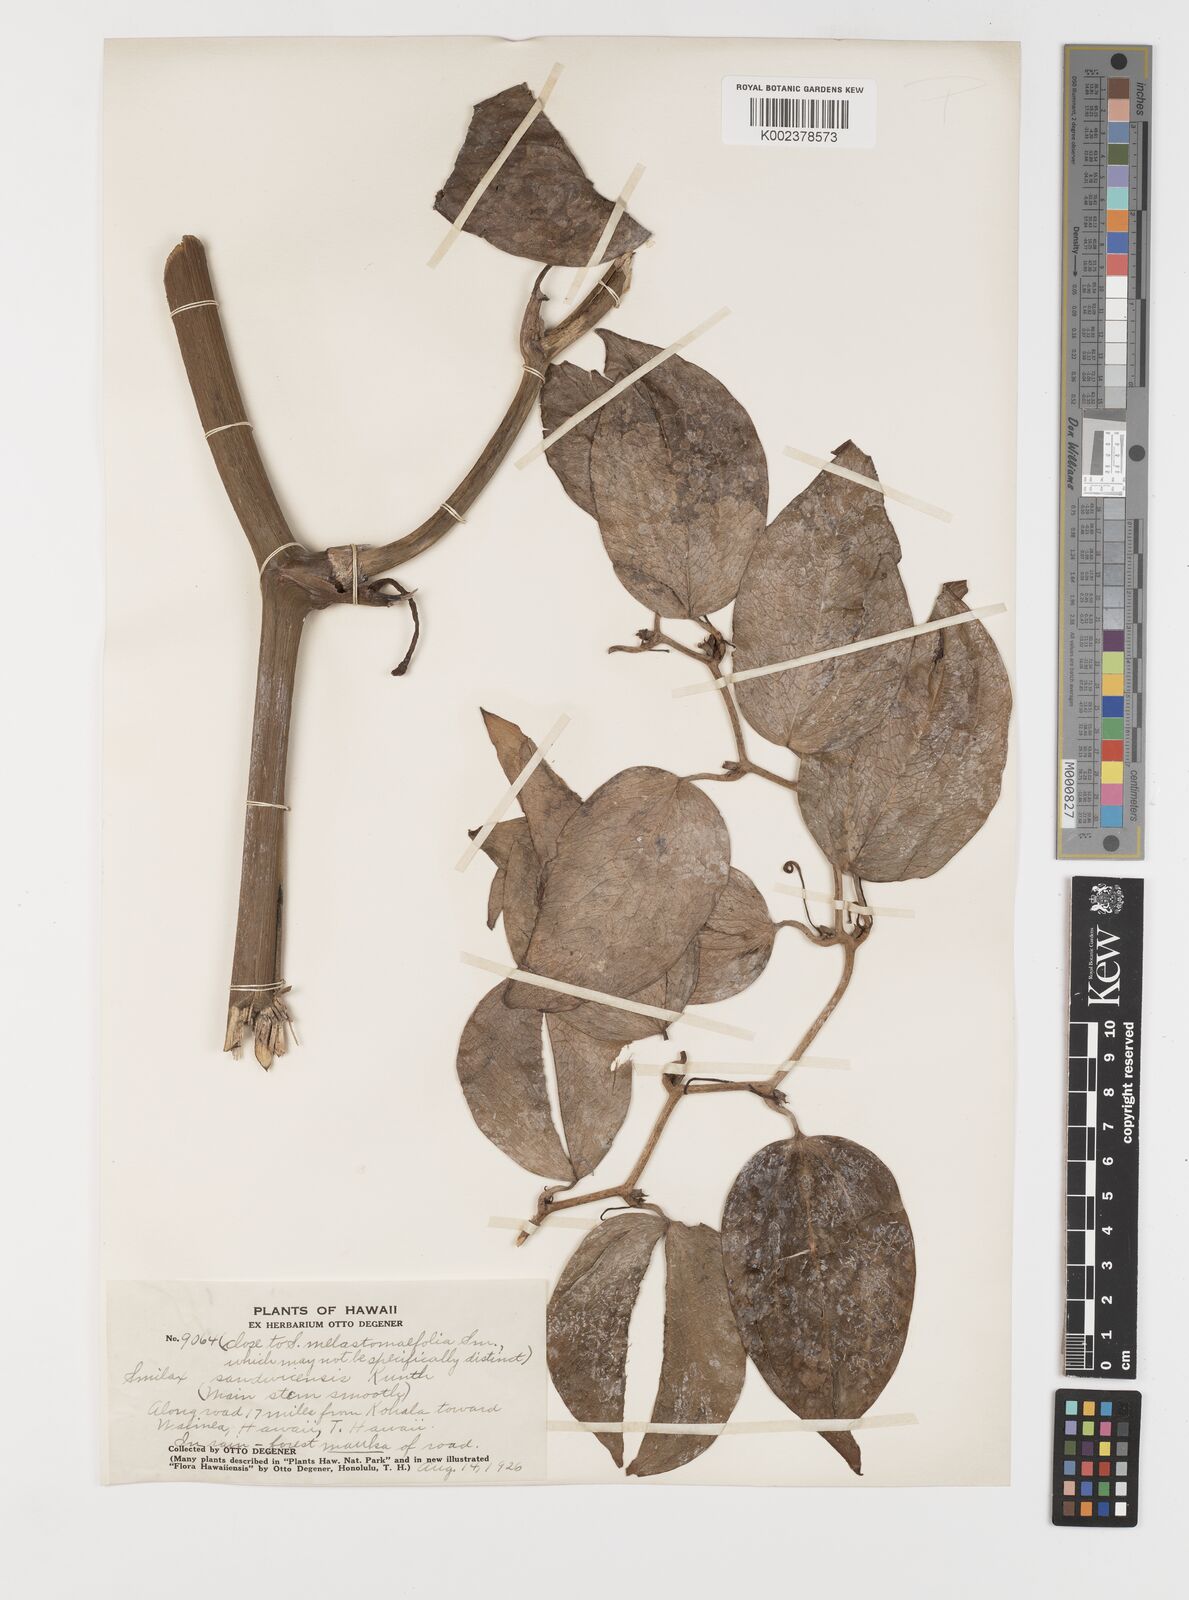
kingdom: Plantae
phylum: Tracheophyta
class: Liliopsida
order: Liliales
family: Smilacaceae
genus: Smilax
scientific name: Smilax melastomifolia
